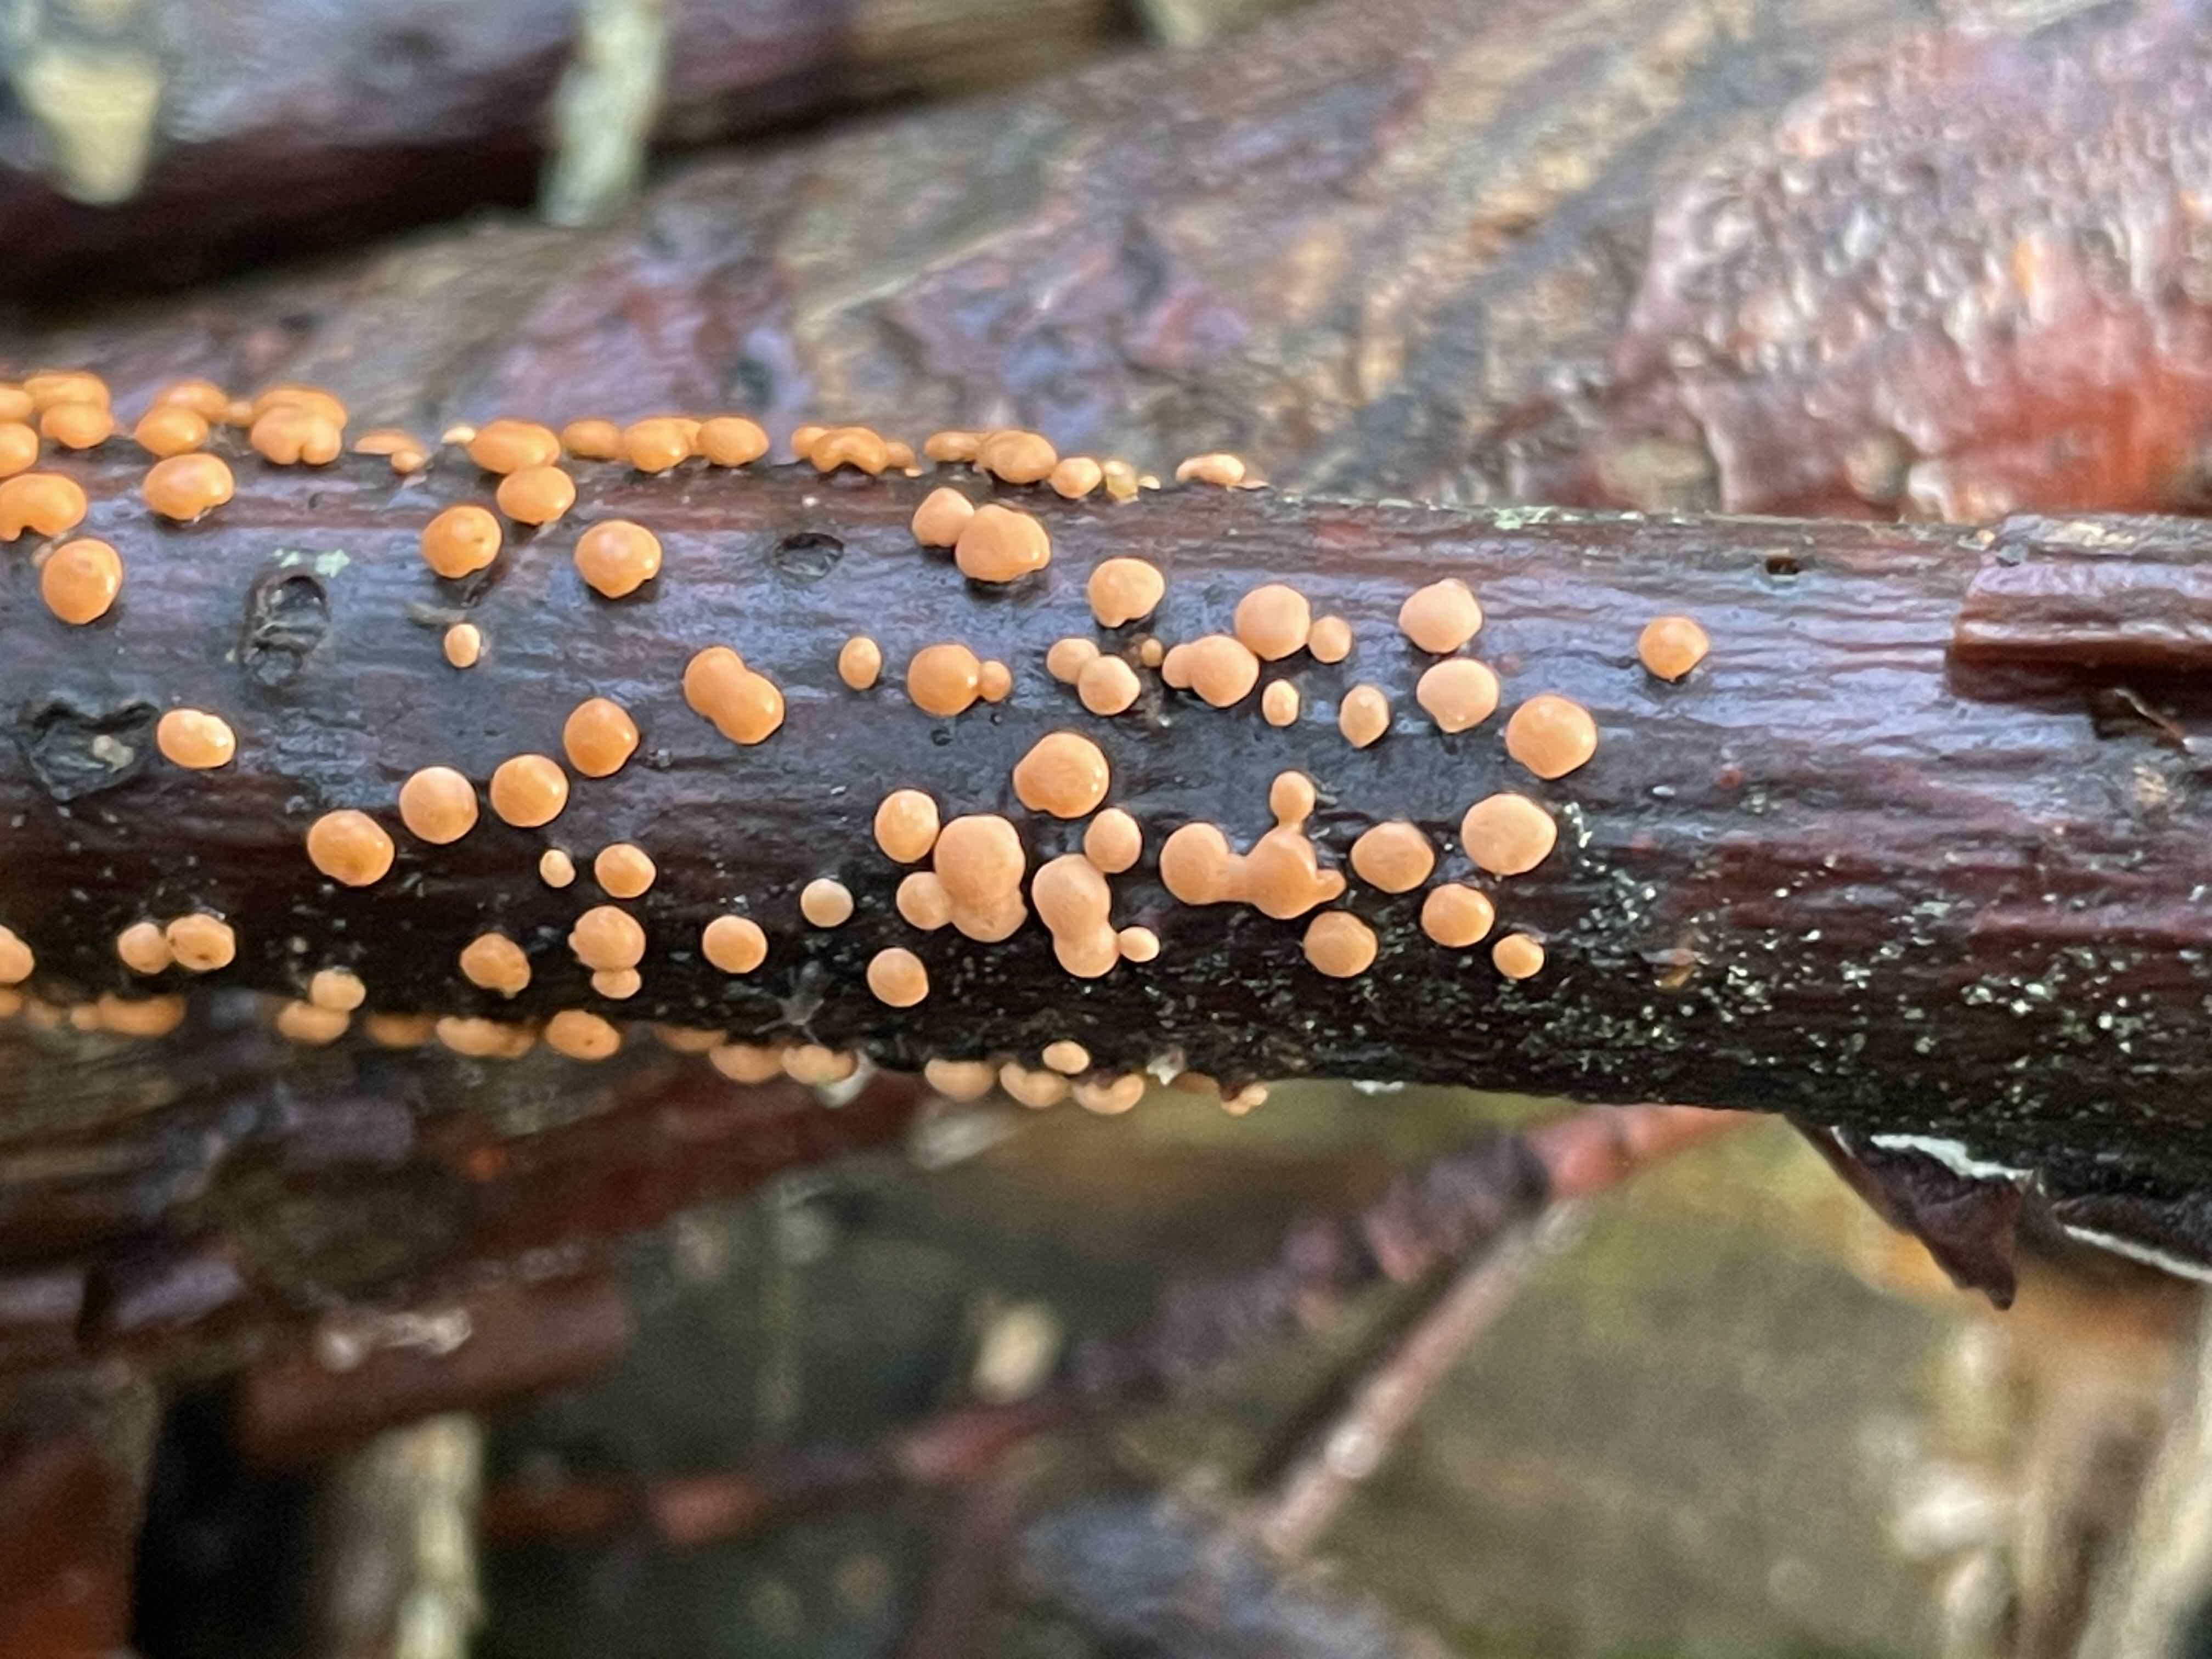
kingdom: Fungi
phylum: Ascomycota
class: Sordariomycetes
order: Hypocreales
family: Nectriaceae
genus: Nectria
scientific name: Nectria cinnabarina
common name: almindelig cinnobersvamp
